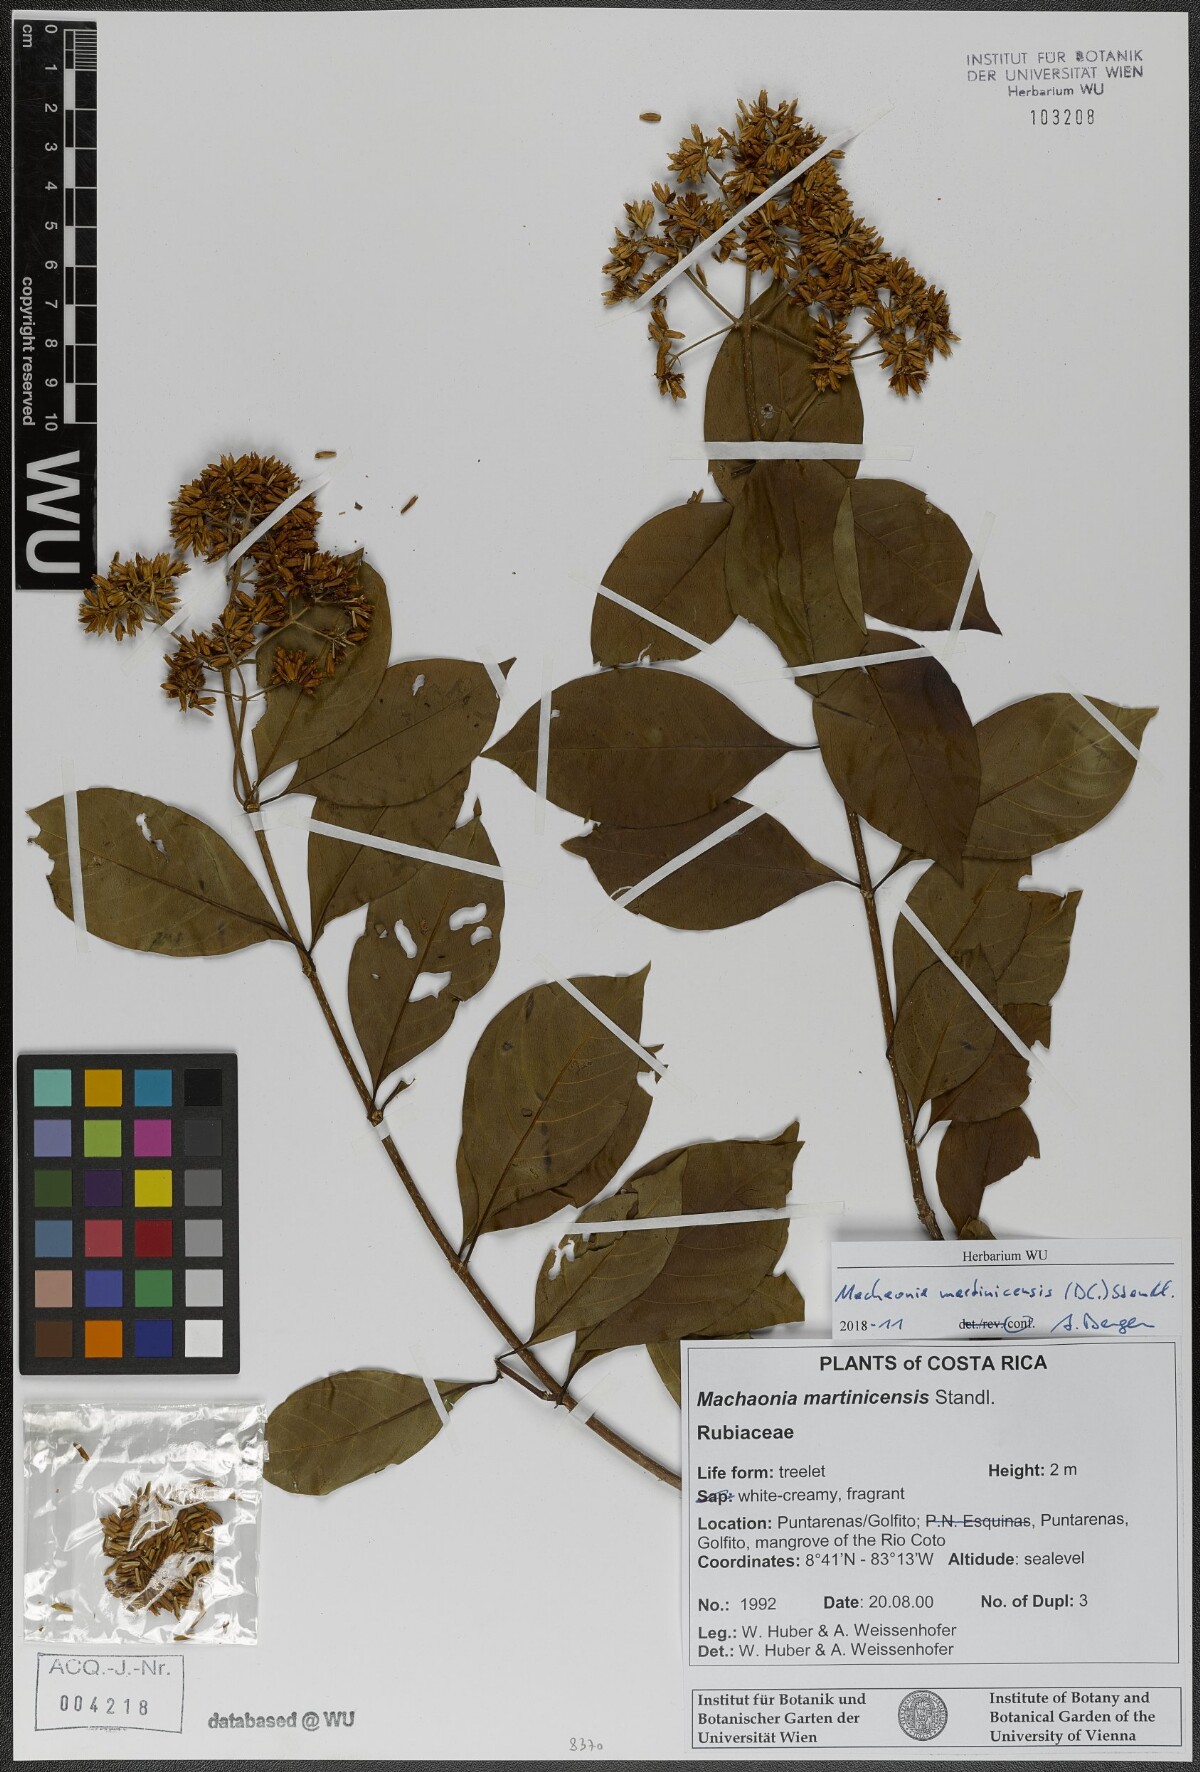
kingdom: Plantae
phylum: Tracheophyta
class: Magnoliopsida
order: Gentianales
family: Rubiaceae
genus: Machaonia
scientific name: Machaonia martinicensis
